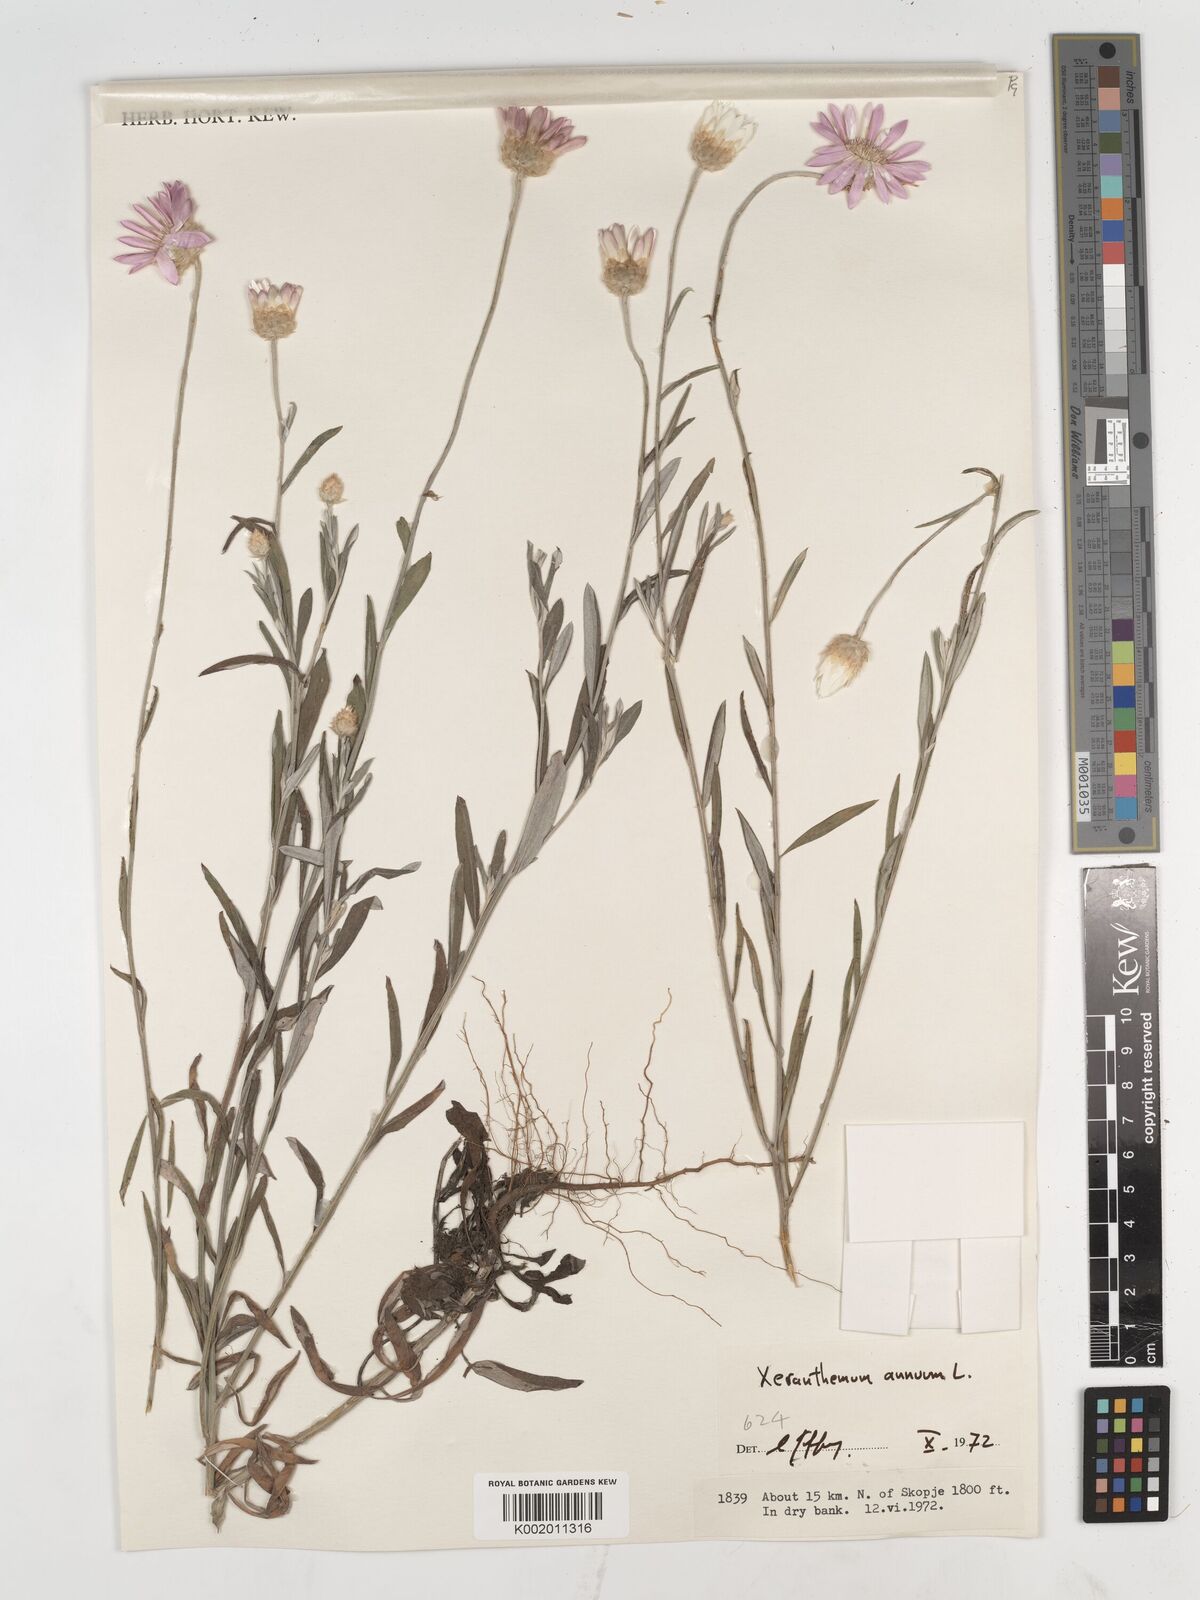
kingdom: Plantae
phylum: Tracheophyta
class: Magnoliopsida
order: Asterales
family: Asteraceae
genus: Xeranthemum
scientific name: Xeranthemum annuum
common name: Immortelle
